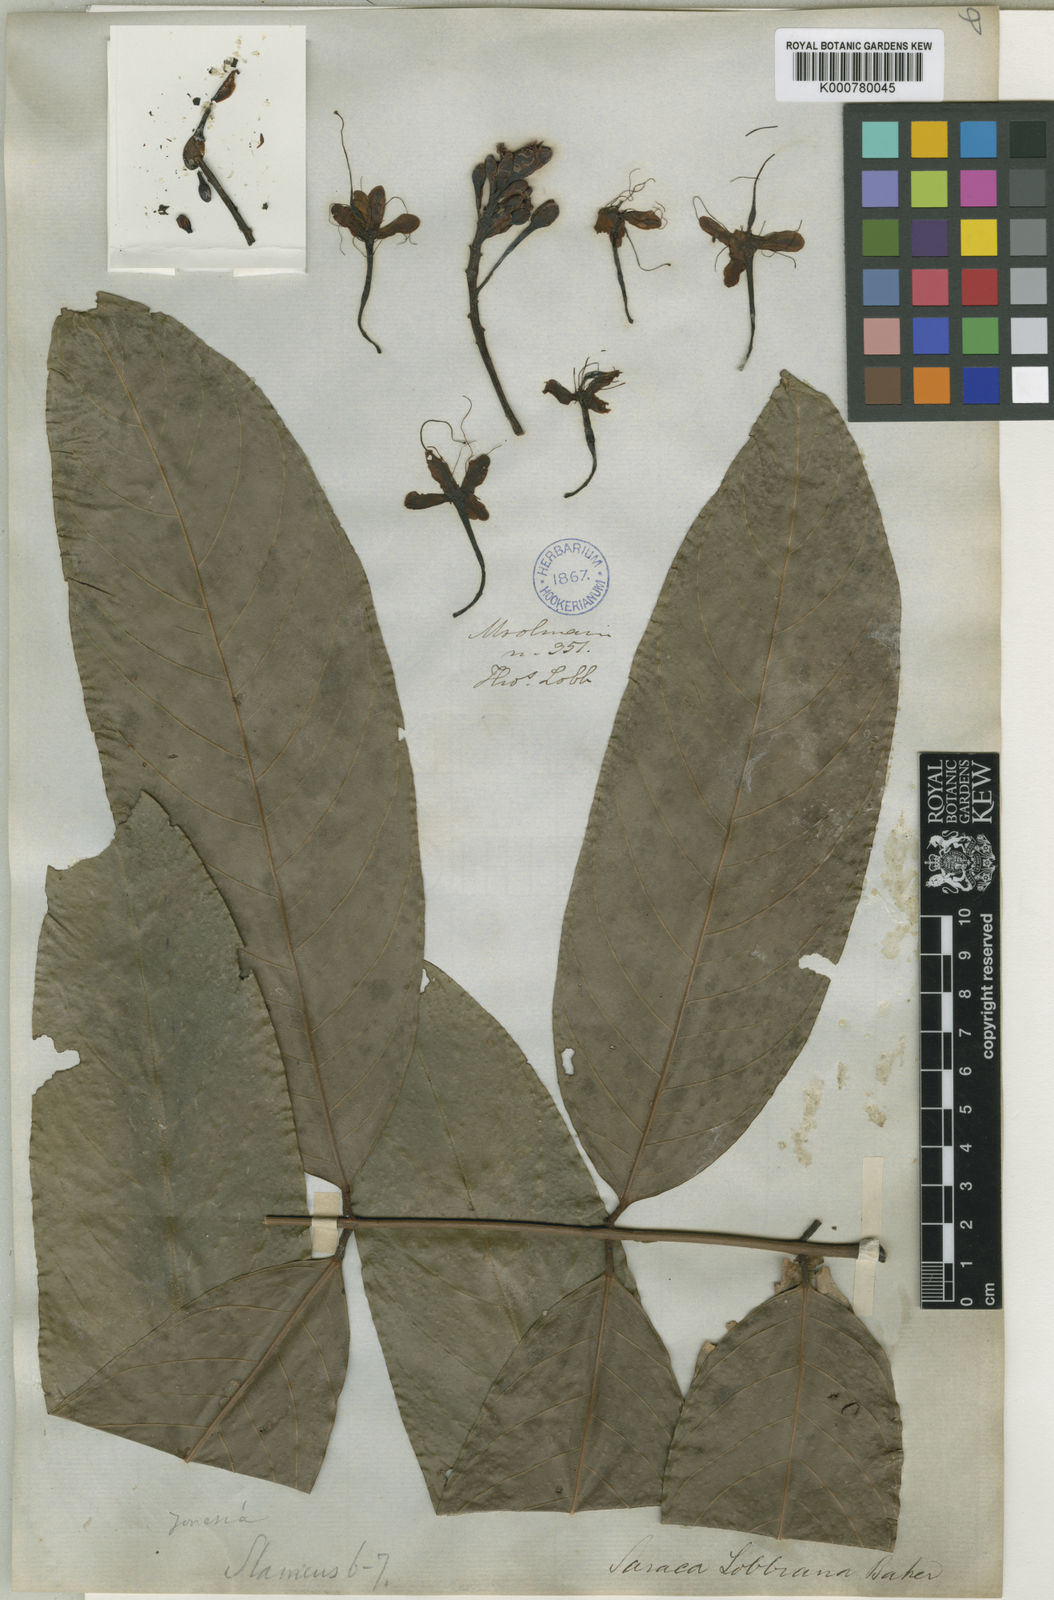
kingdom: Plantae
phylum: Tracheophyta
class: Magnoliopsida
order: Fabales
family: Fabaceae
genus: Saraca
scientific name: Saraca indica
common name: Asoka-tree
